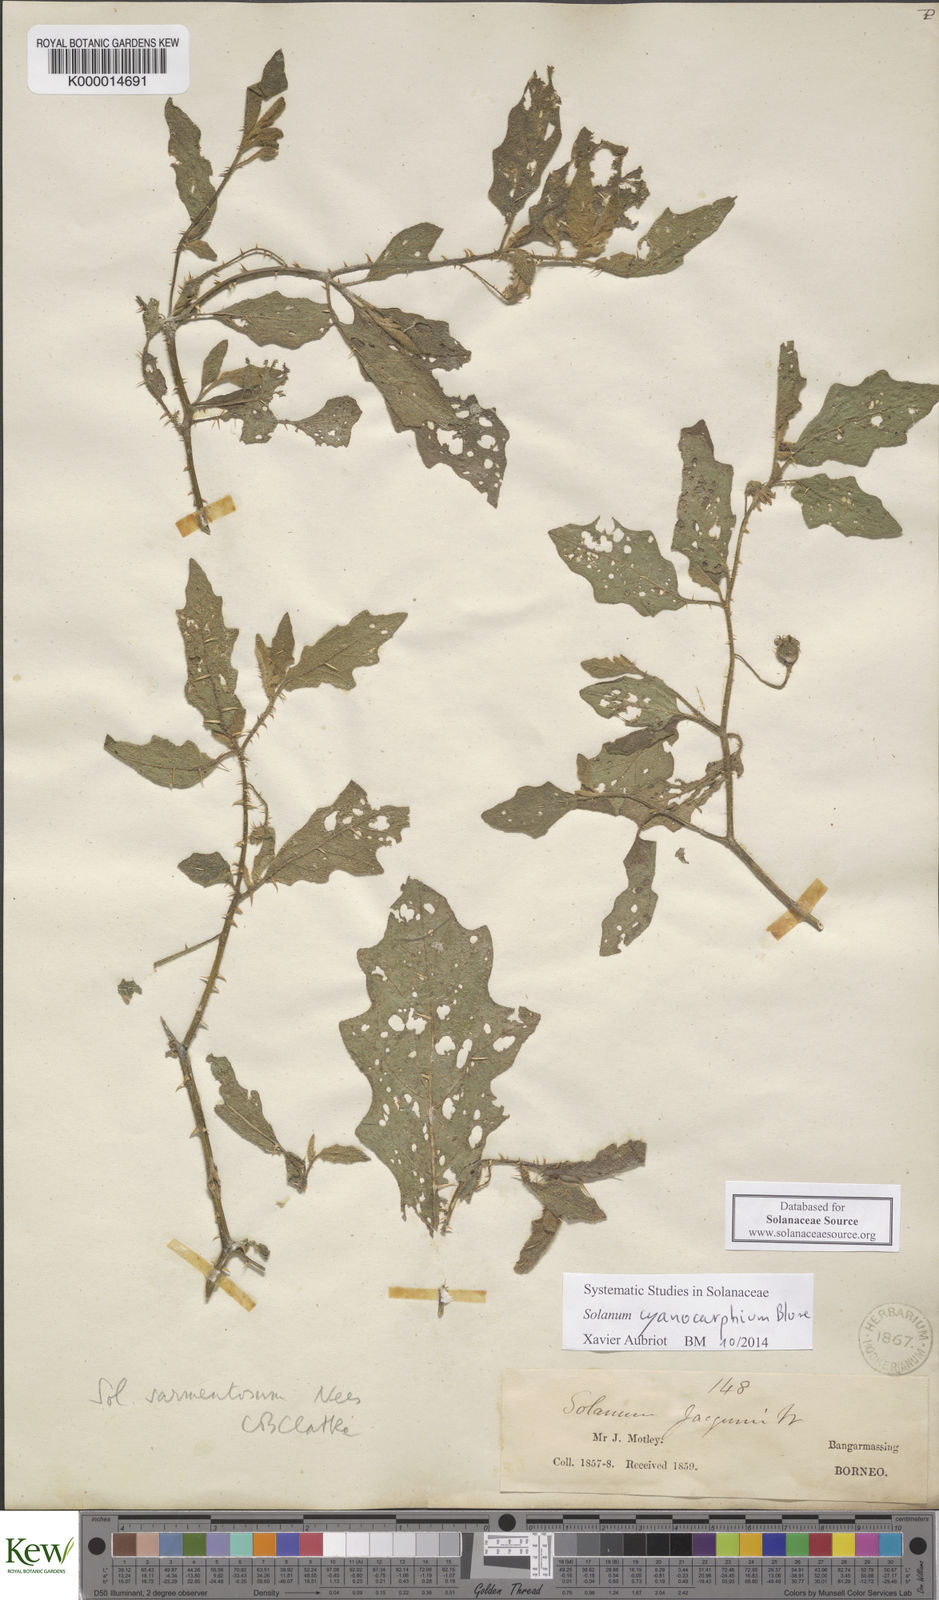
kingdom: Plantae
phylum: Tracheophyta
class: Magnoliopsida
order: Solanales
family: Solanaceae
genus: Solanum
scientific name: Solanum cyanocarphium
